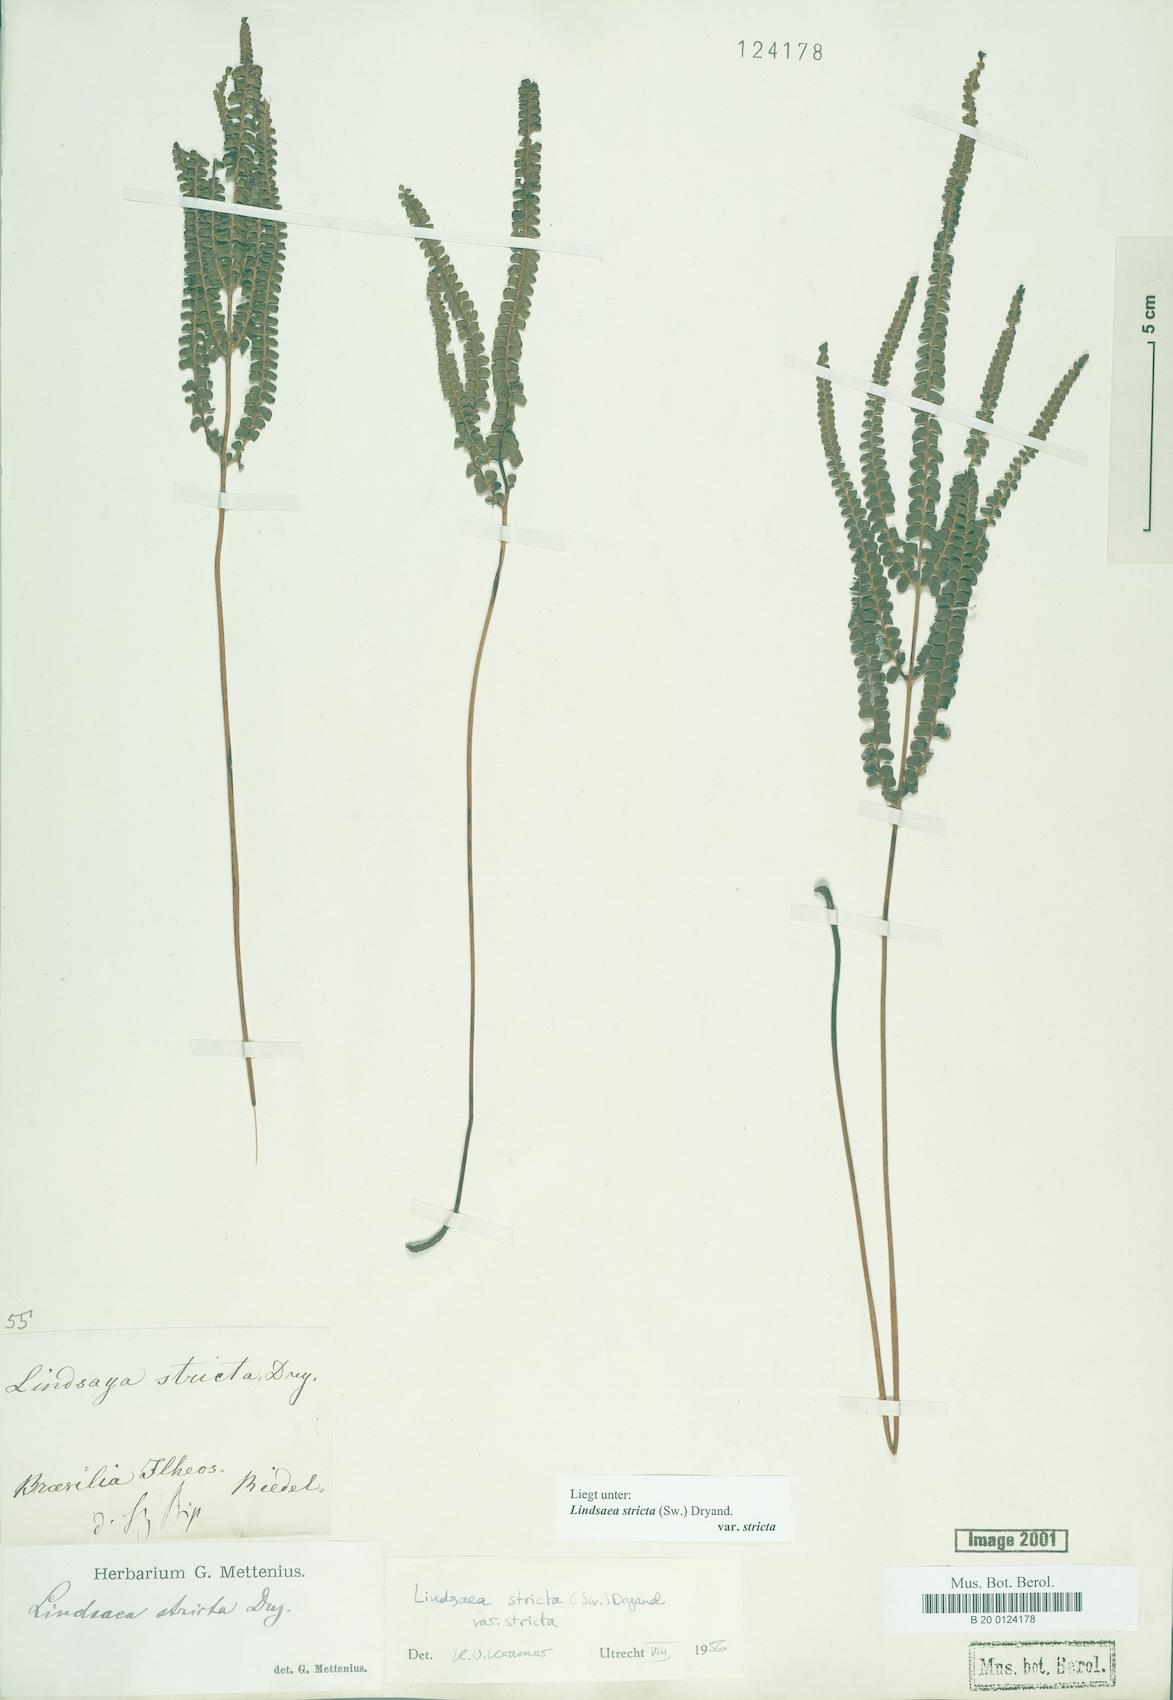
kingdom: Plantae
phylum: Tracheophyta
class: Polypodiopsida
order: Polypodiales
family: Lindsaeaceae
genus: Lindsaea
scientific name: Lindsaea stricta
